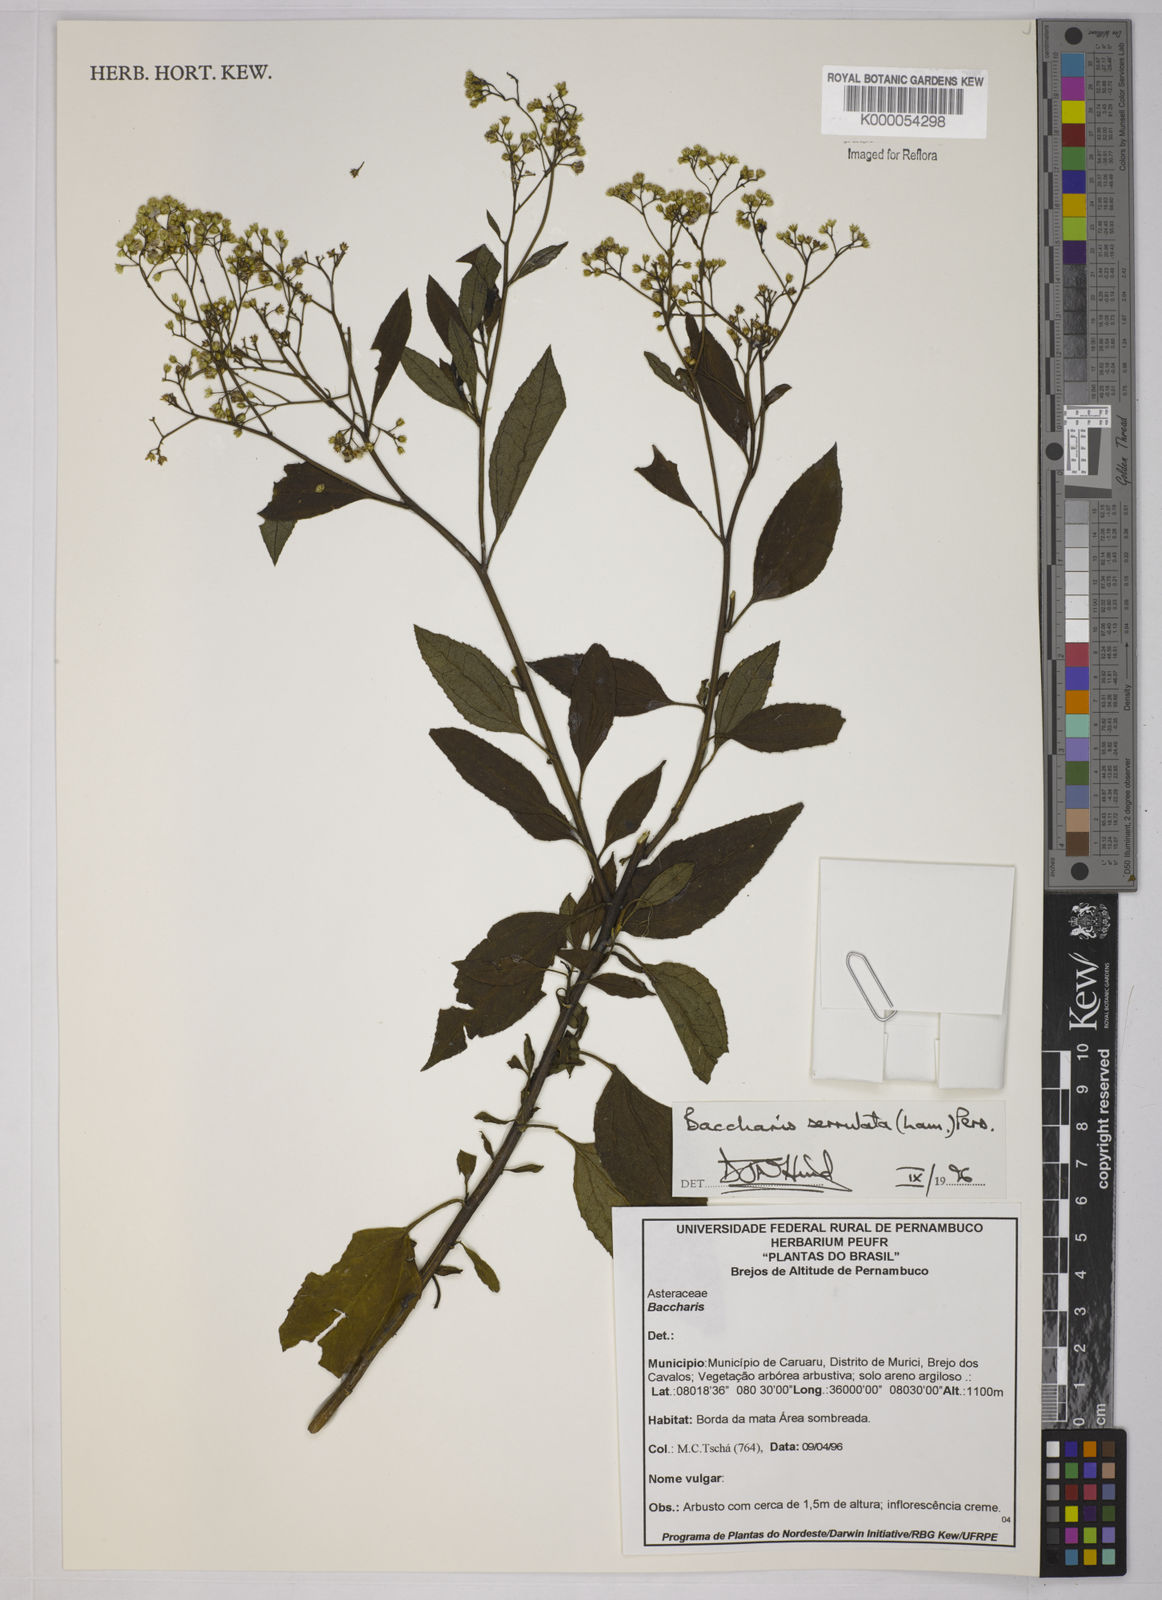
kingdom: Plantae
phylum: Tracheophyta
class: Magnoliopsida
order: Asterales
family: Asteraceae
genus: Baccharis
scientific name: Baccharis serrulata
